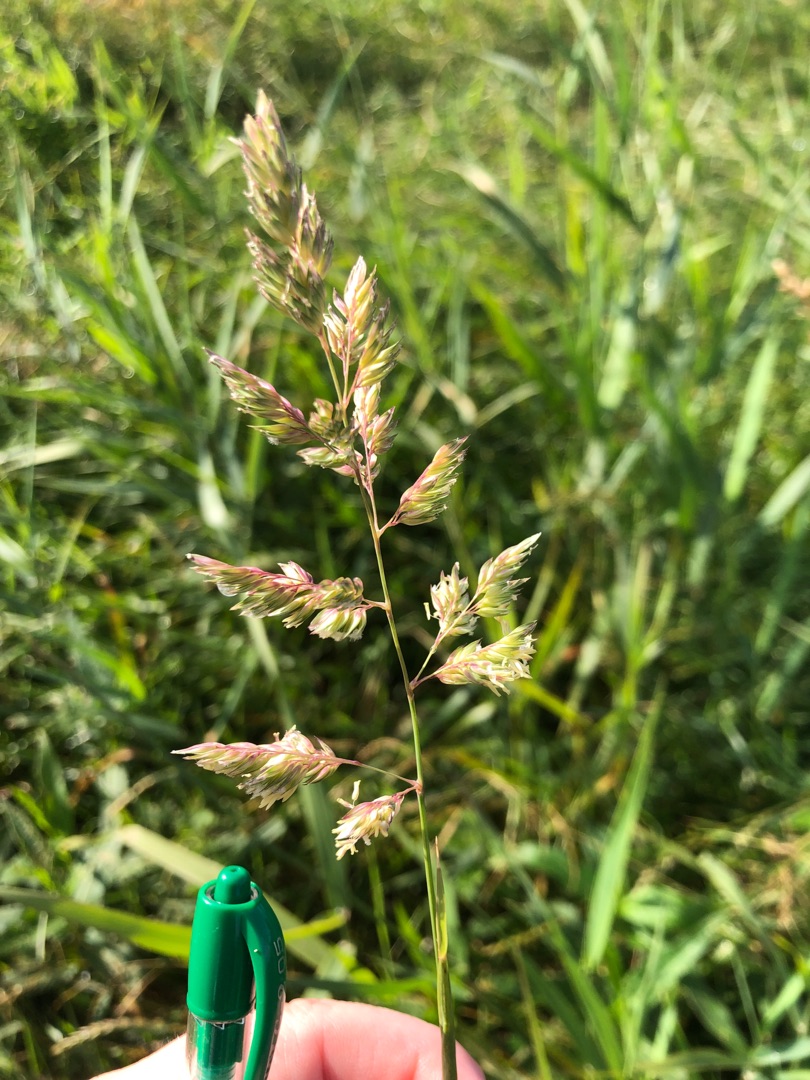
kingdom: Plantae
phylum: Tracheophyta
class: Liliopsida
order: Poales
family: Poaceae
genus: Phalaris
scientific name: Phalaris arundinacea
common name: Rørgræs
